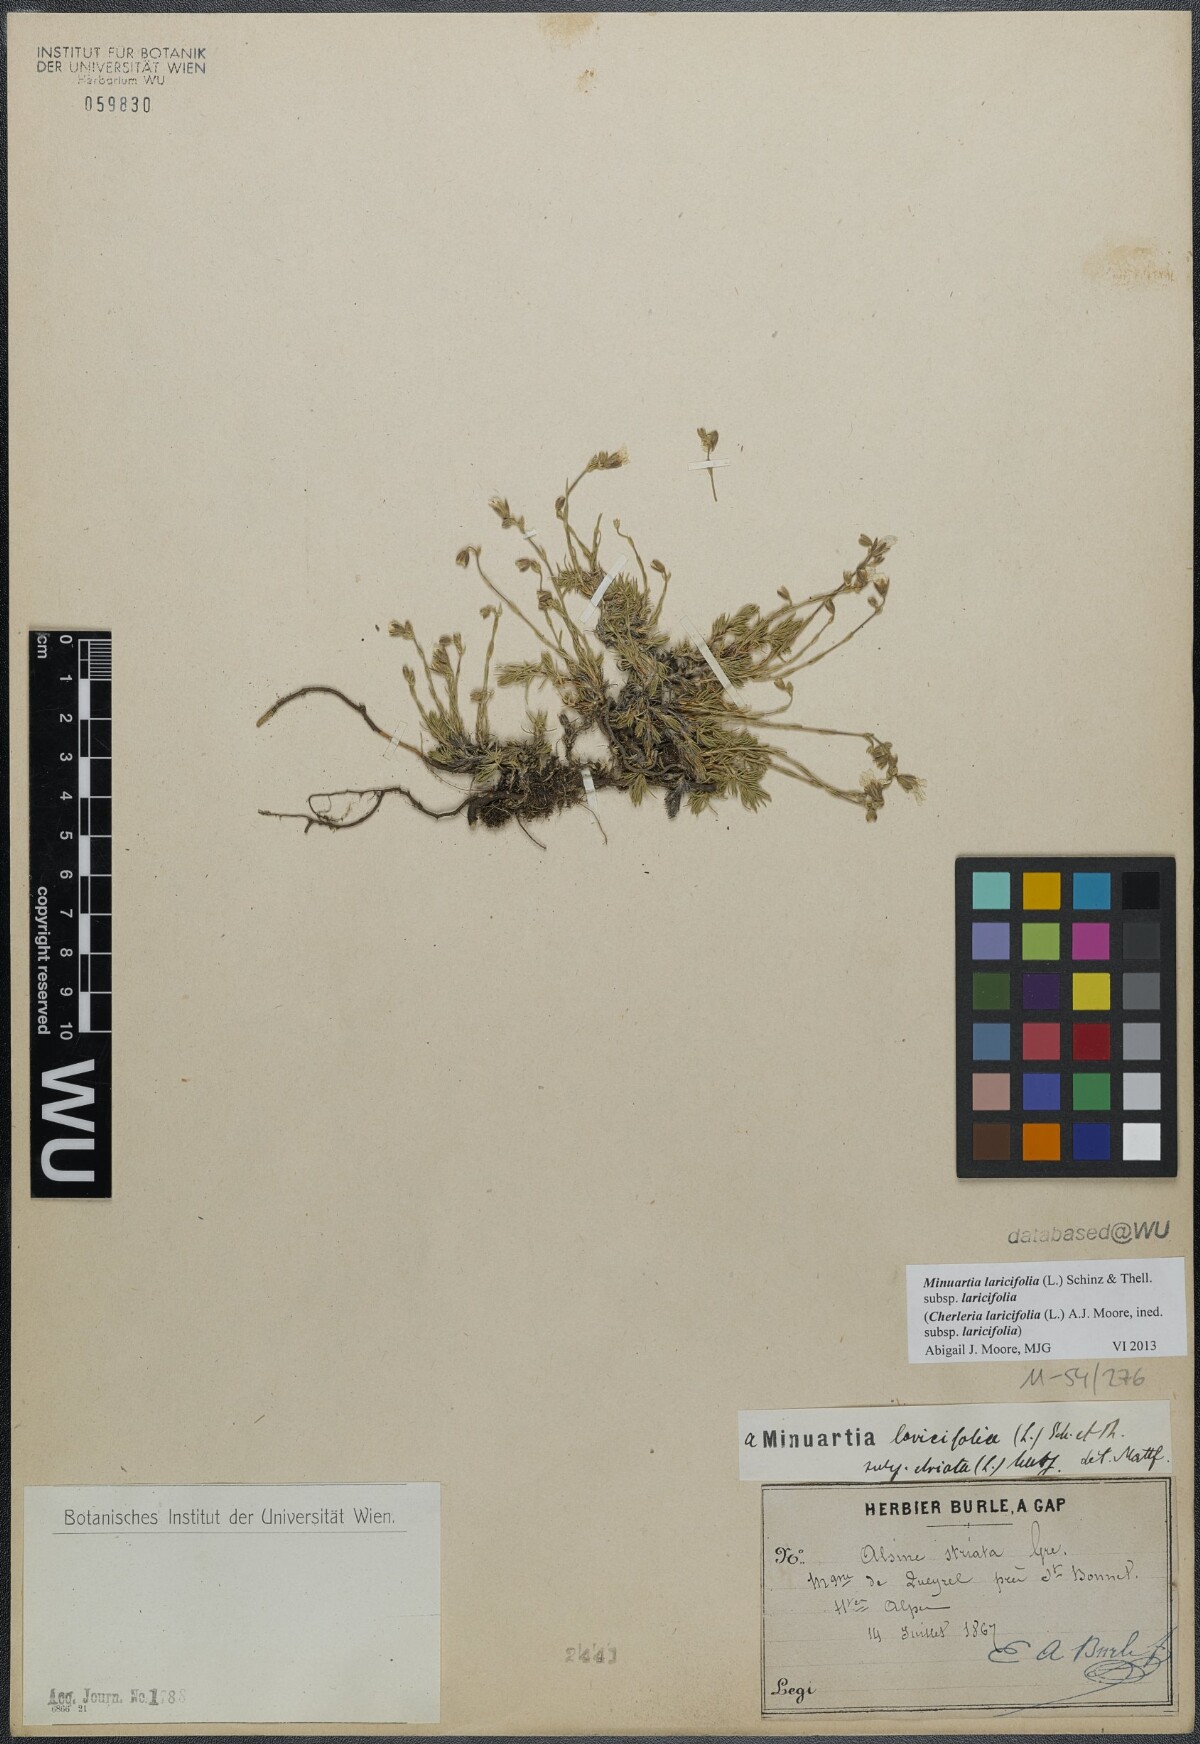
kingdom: Plantae
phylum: Tracheophyta
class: Magnoliopsida
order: Caryophyllales
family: Caryophyllaceae
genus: Cherleria
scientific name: Cherleria laricifolia
